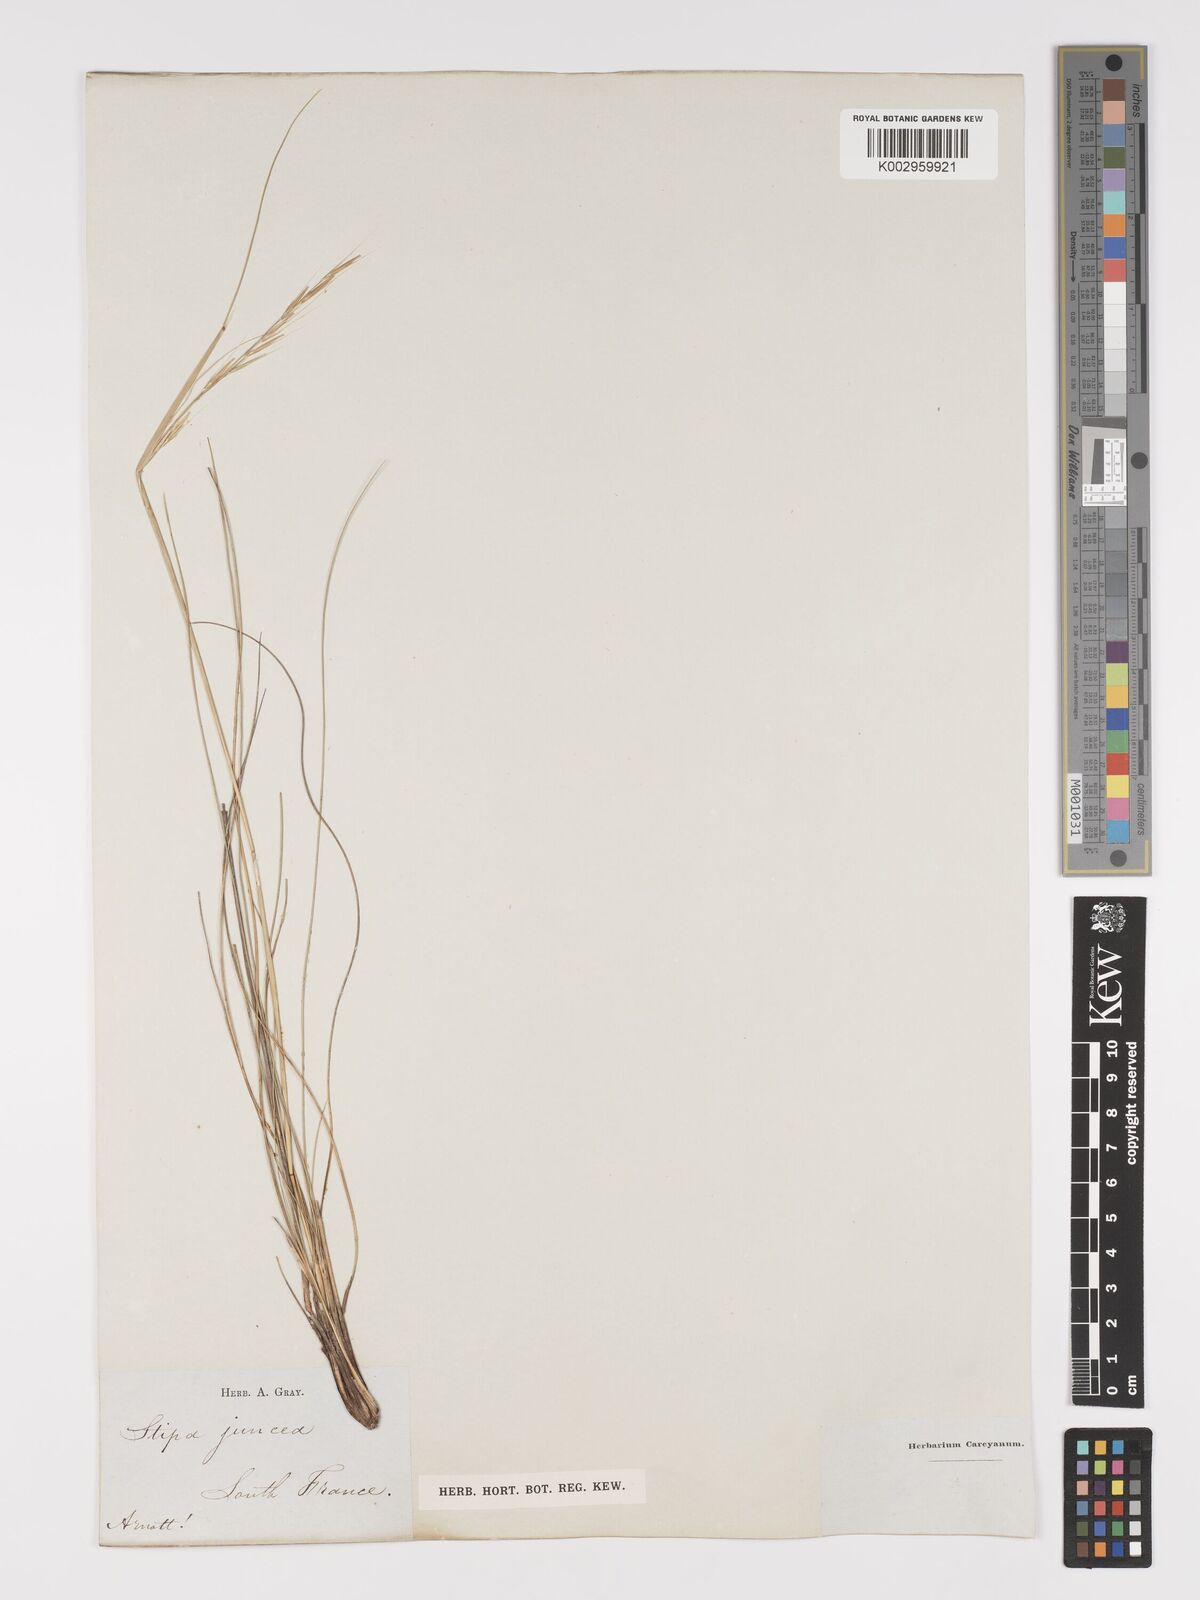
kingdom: Plantae
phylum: Tracheophyta
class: Liliopsida
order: Poales
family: Poaceae
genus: Stipa
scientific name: Stipa
